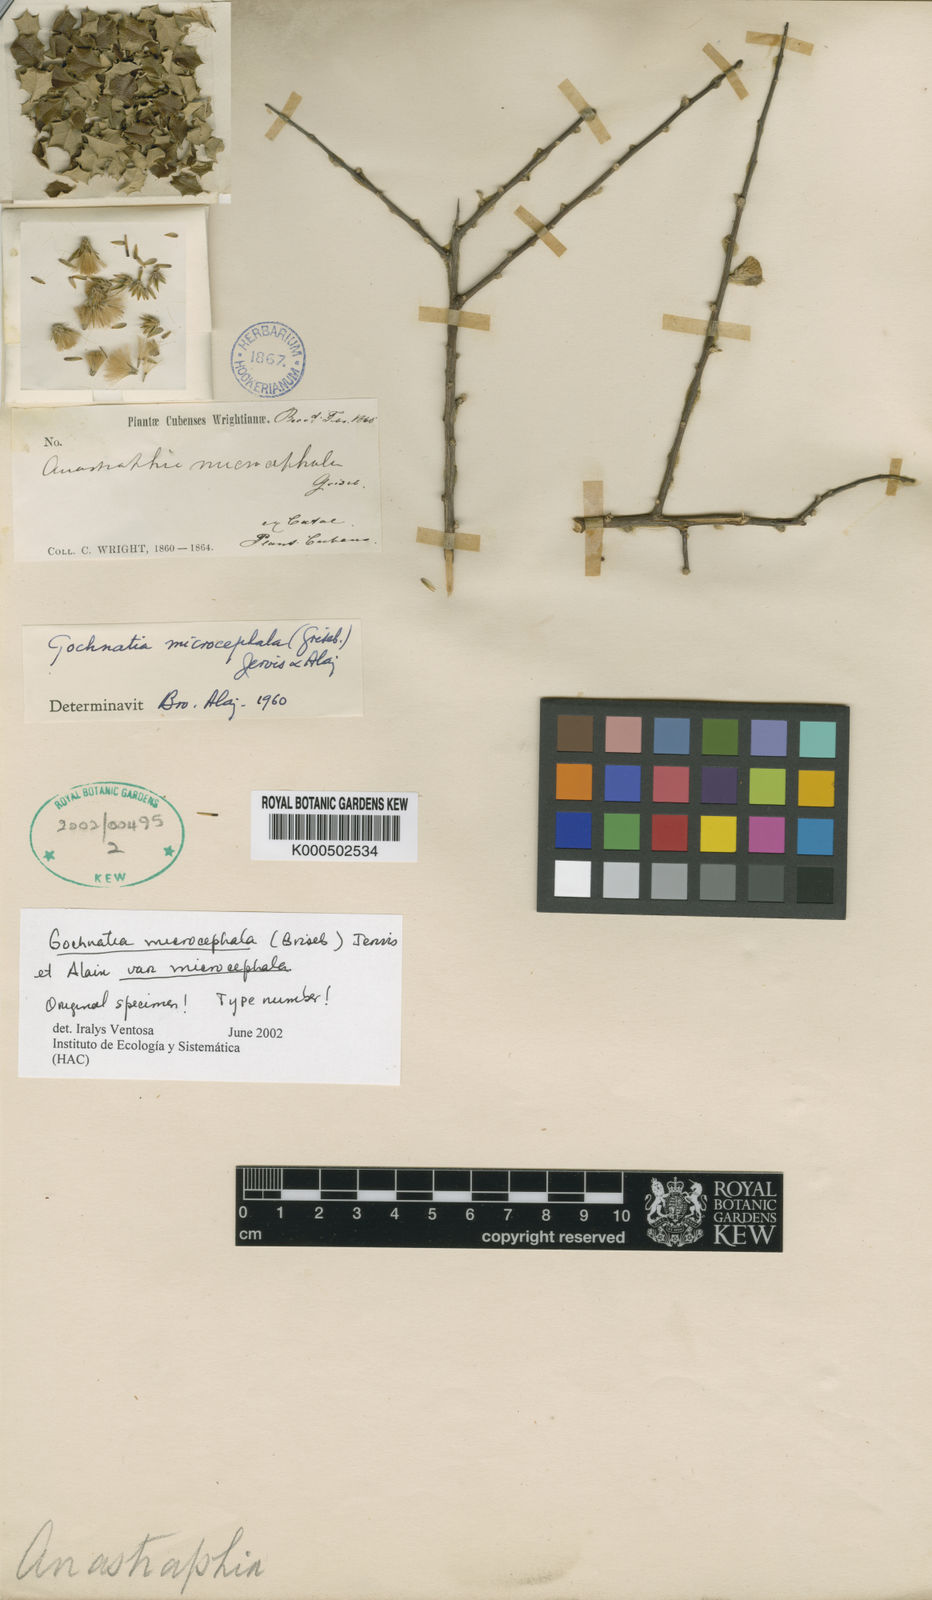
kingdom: Plantae
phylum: Tracheophyta
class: Magnoliopsida
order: Asterales
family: Asteraceae
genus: Anastraphia
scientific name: Anastraphia microcephala
